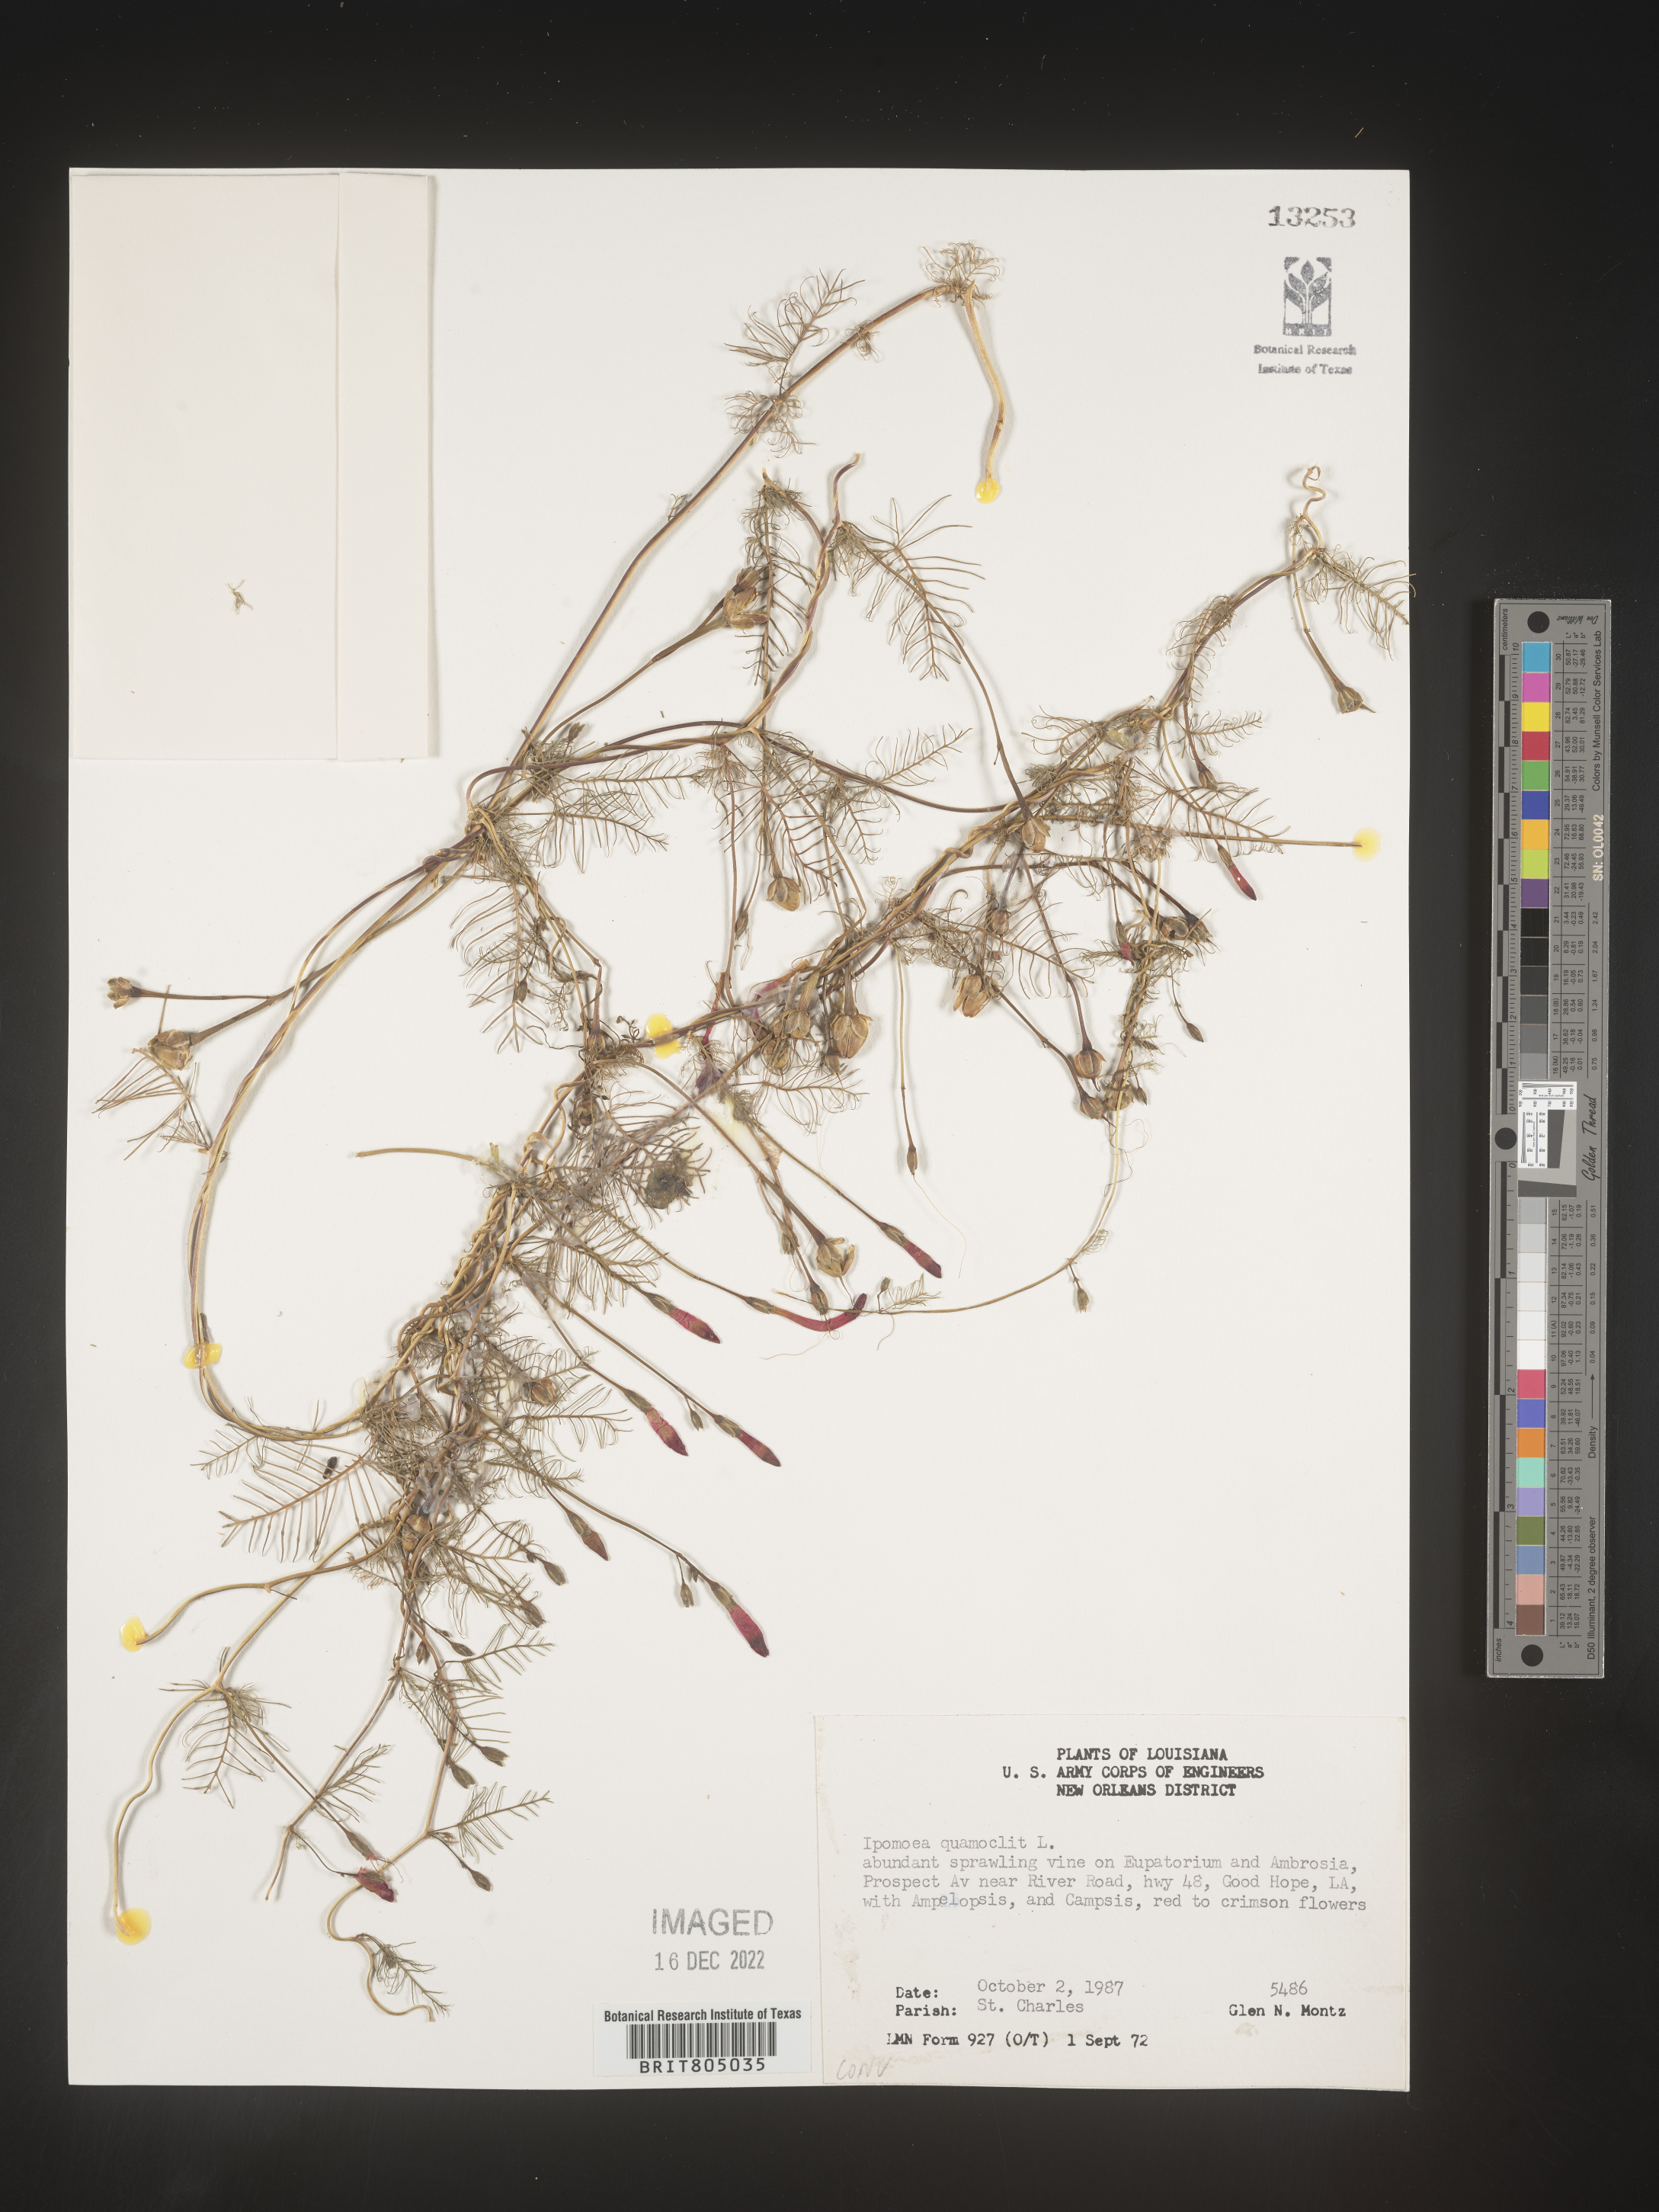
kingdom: Plantae
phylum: Tracheophyta
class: Magnoliopsida
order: Solanales
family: Convolvulaceae
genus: Ipomoea
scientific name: Ipomoea quamoclit
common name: Cypress vine
